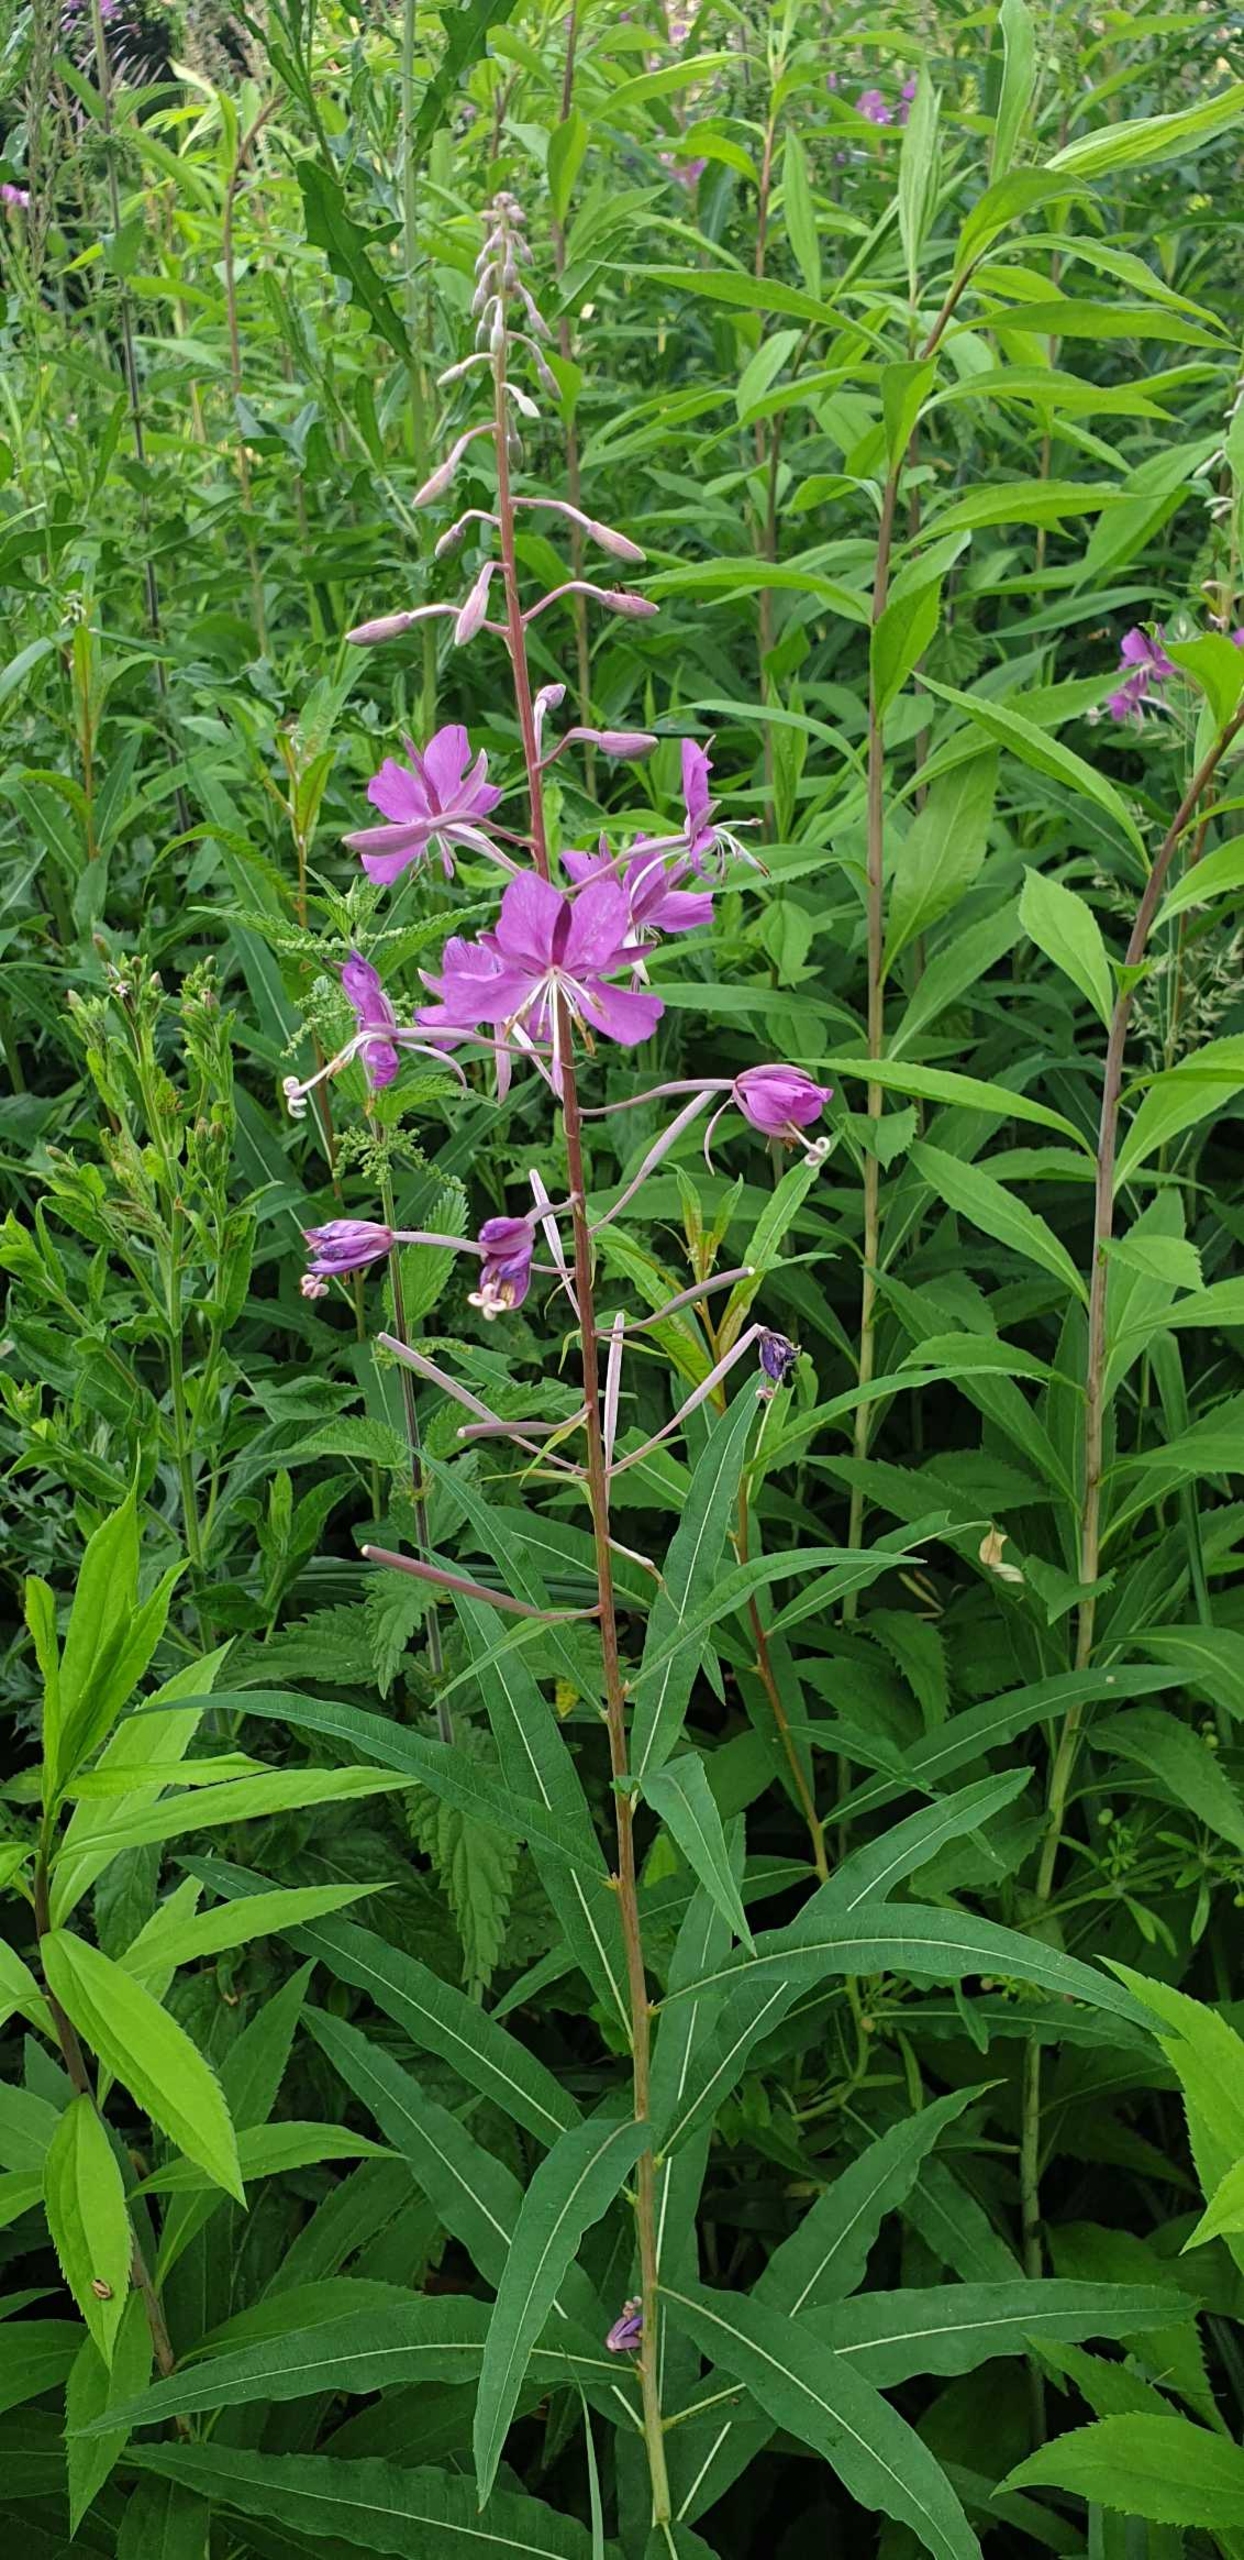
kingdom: Plantae
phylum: Tracheophyta
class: Magnoliopsida
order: Myrtales
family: Onagraceae
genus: Chamaenerion
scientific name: Chamaenerion angustifolium
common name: Gederams
